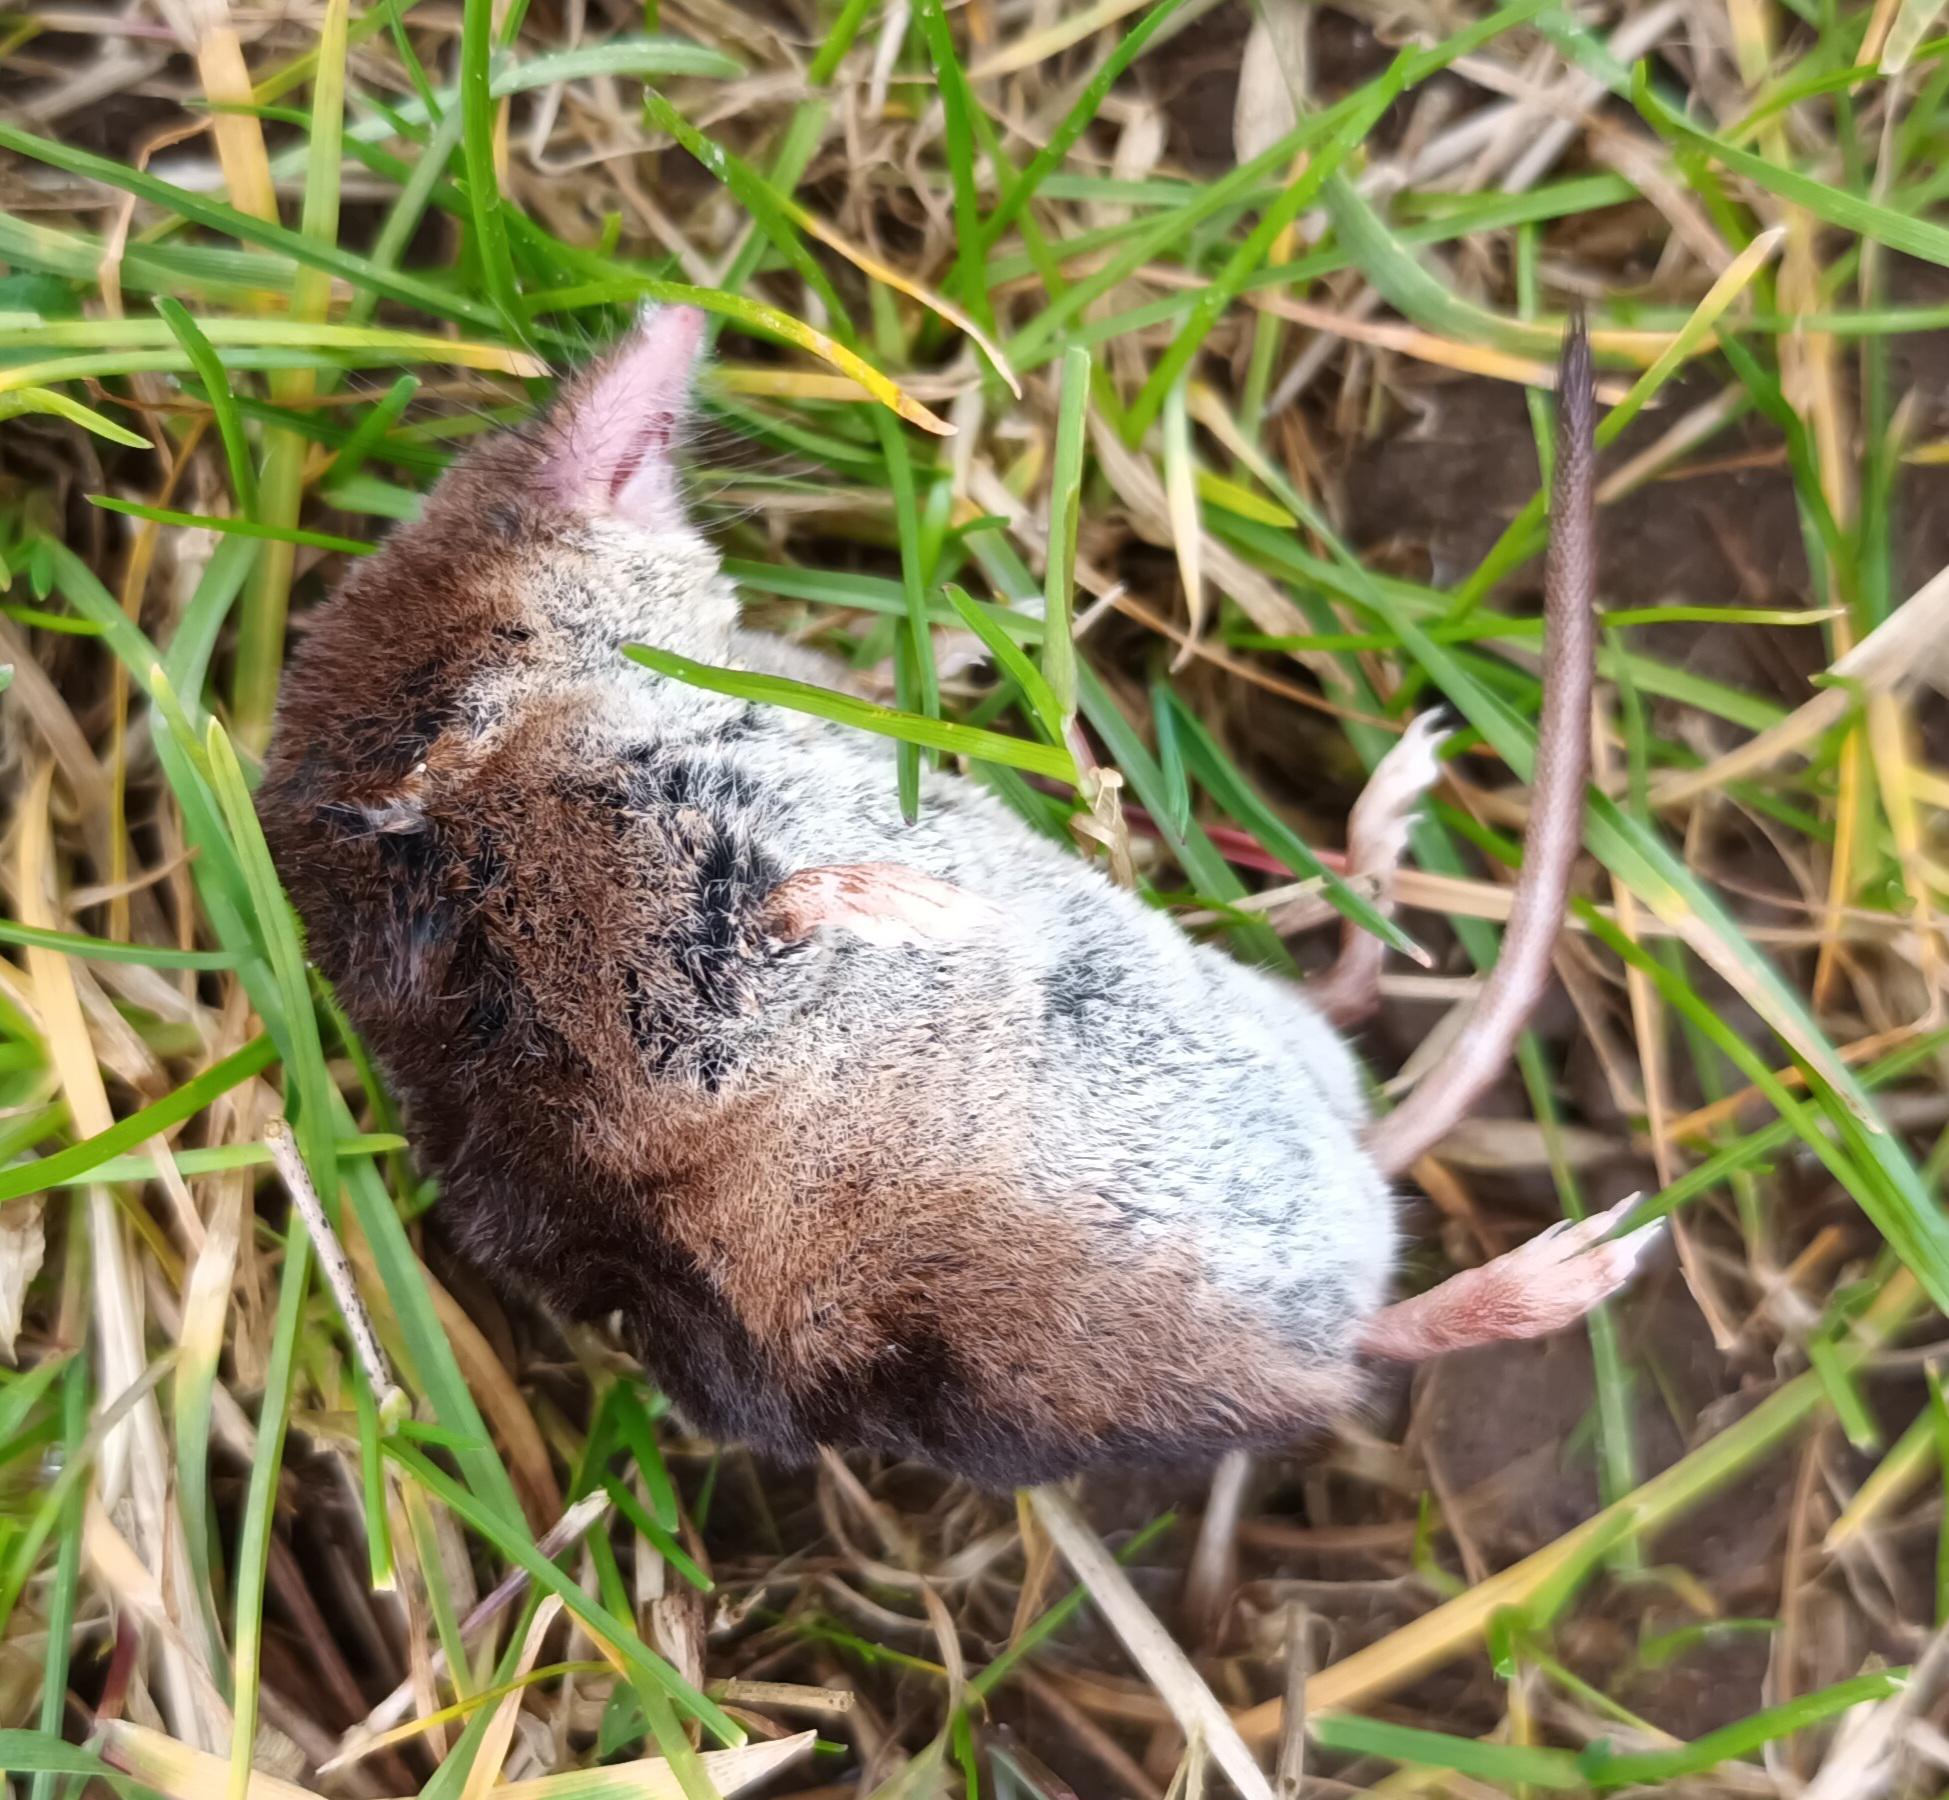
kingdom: Animalia
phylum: Chordata
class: Mammalia
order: Soricomorpha
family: Soricidae
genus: Sorex
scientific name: Sorex araneus
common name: Almindelig spidsmus
